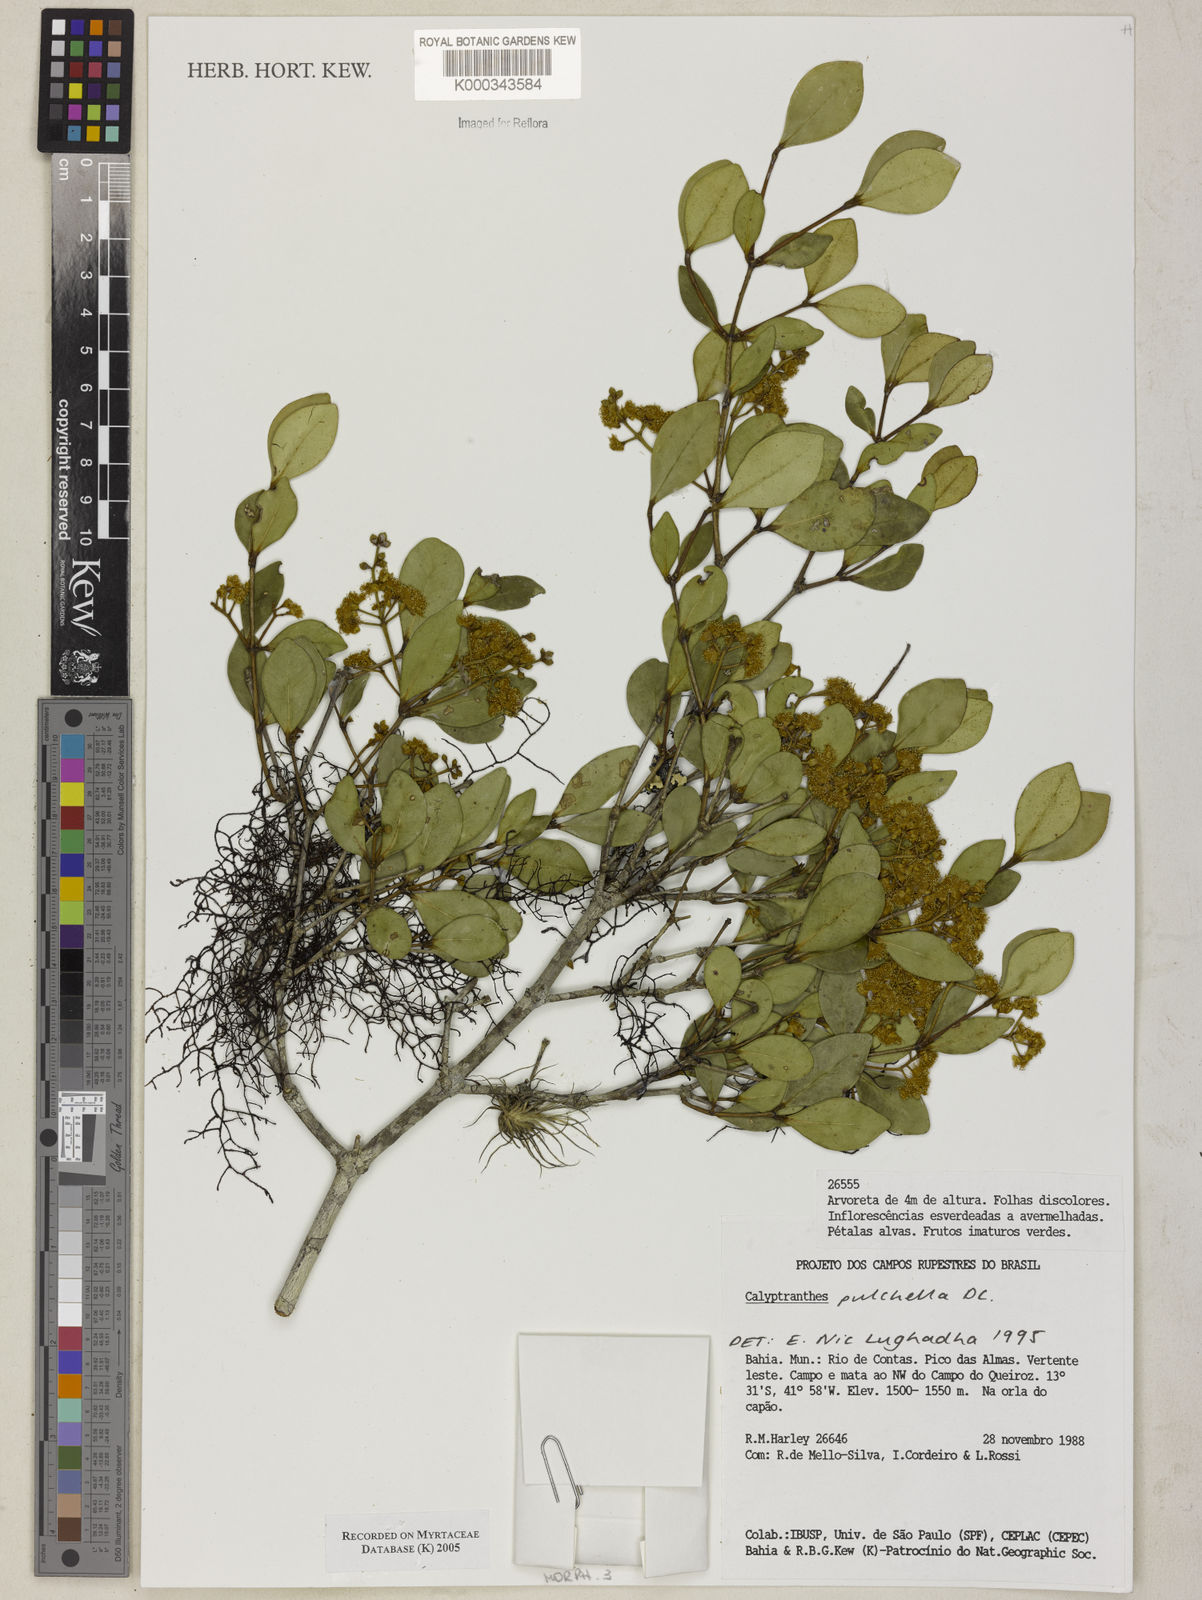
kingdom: Plantae
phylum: Tracheophyta
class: Magnoliopsida
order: Myrtales
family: Myrtaceae
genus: Myrcia
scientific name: Myrcia pulchella
